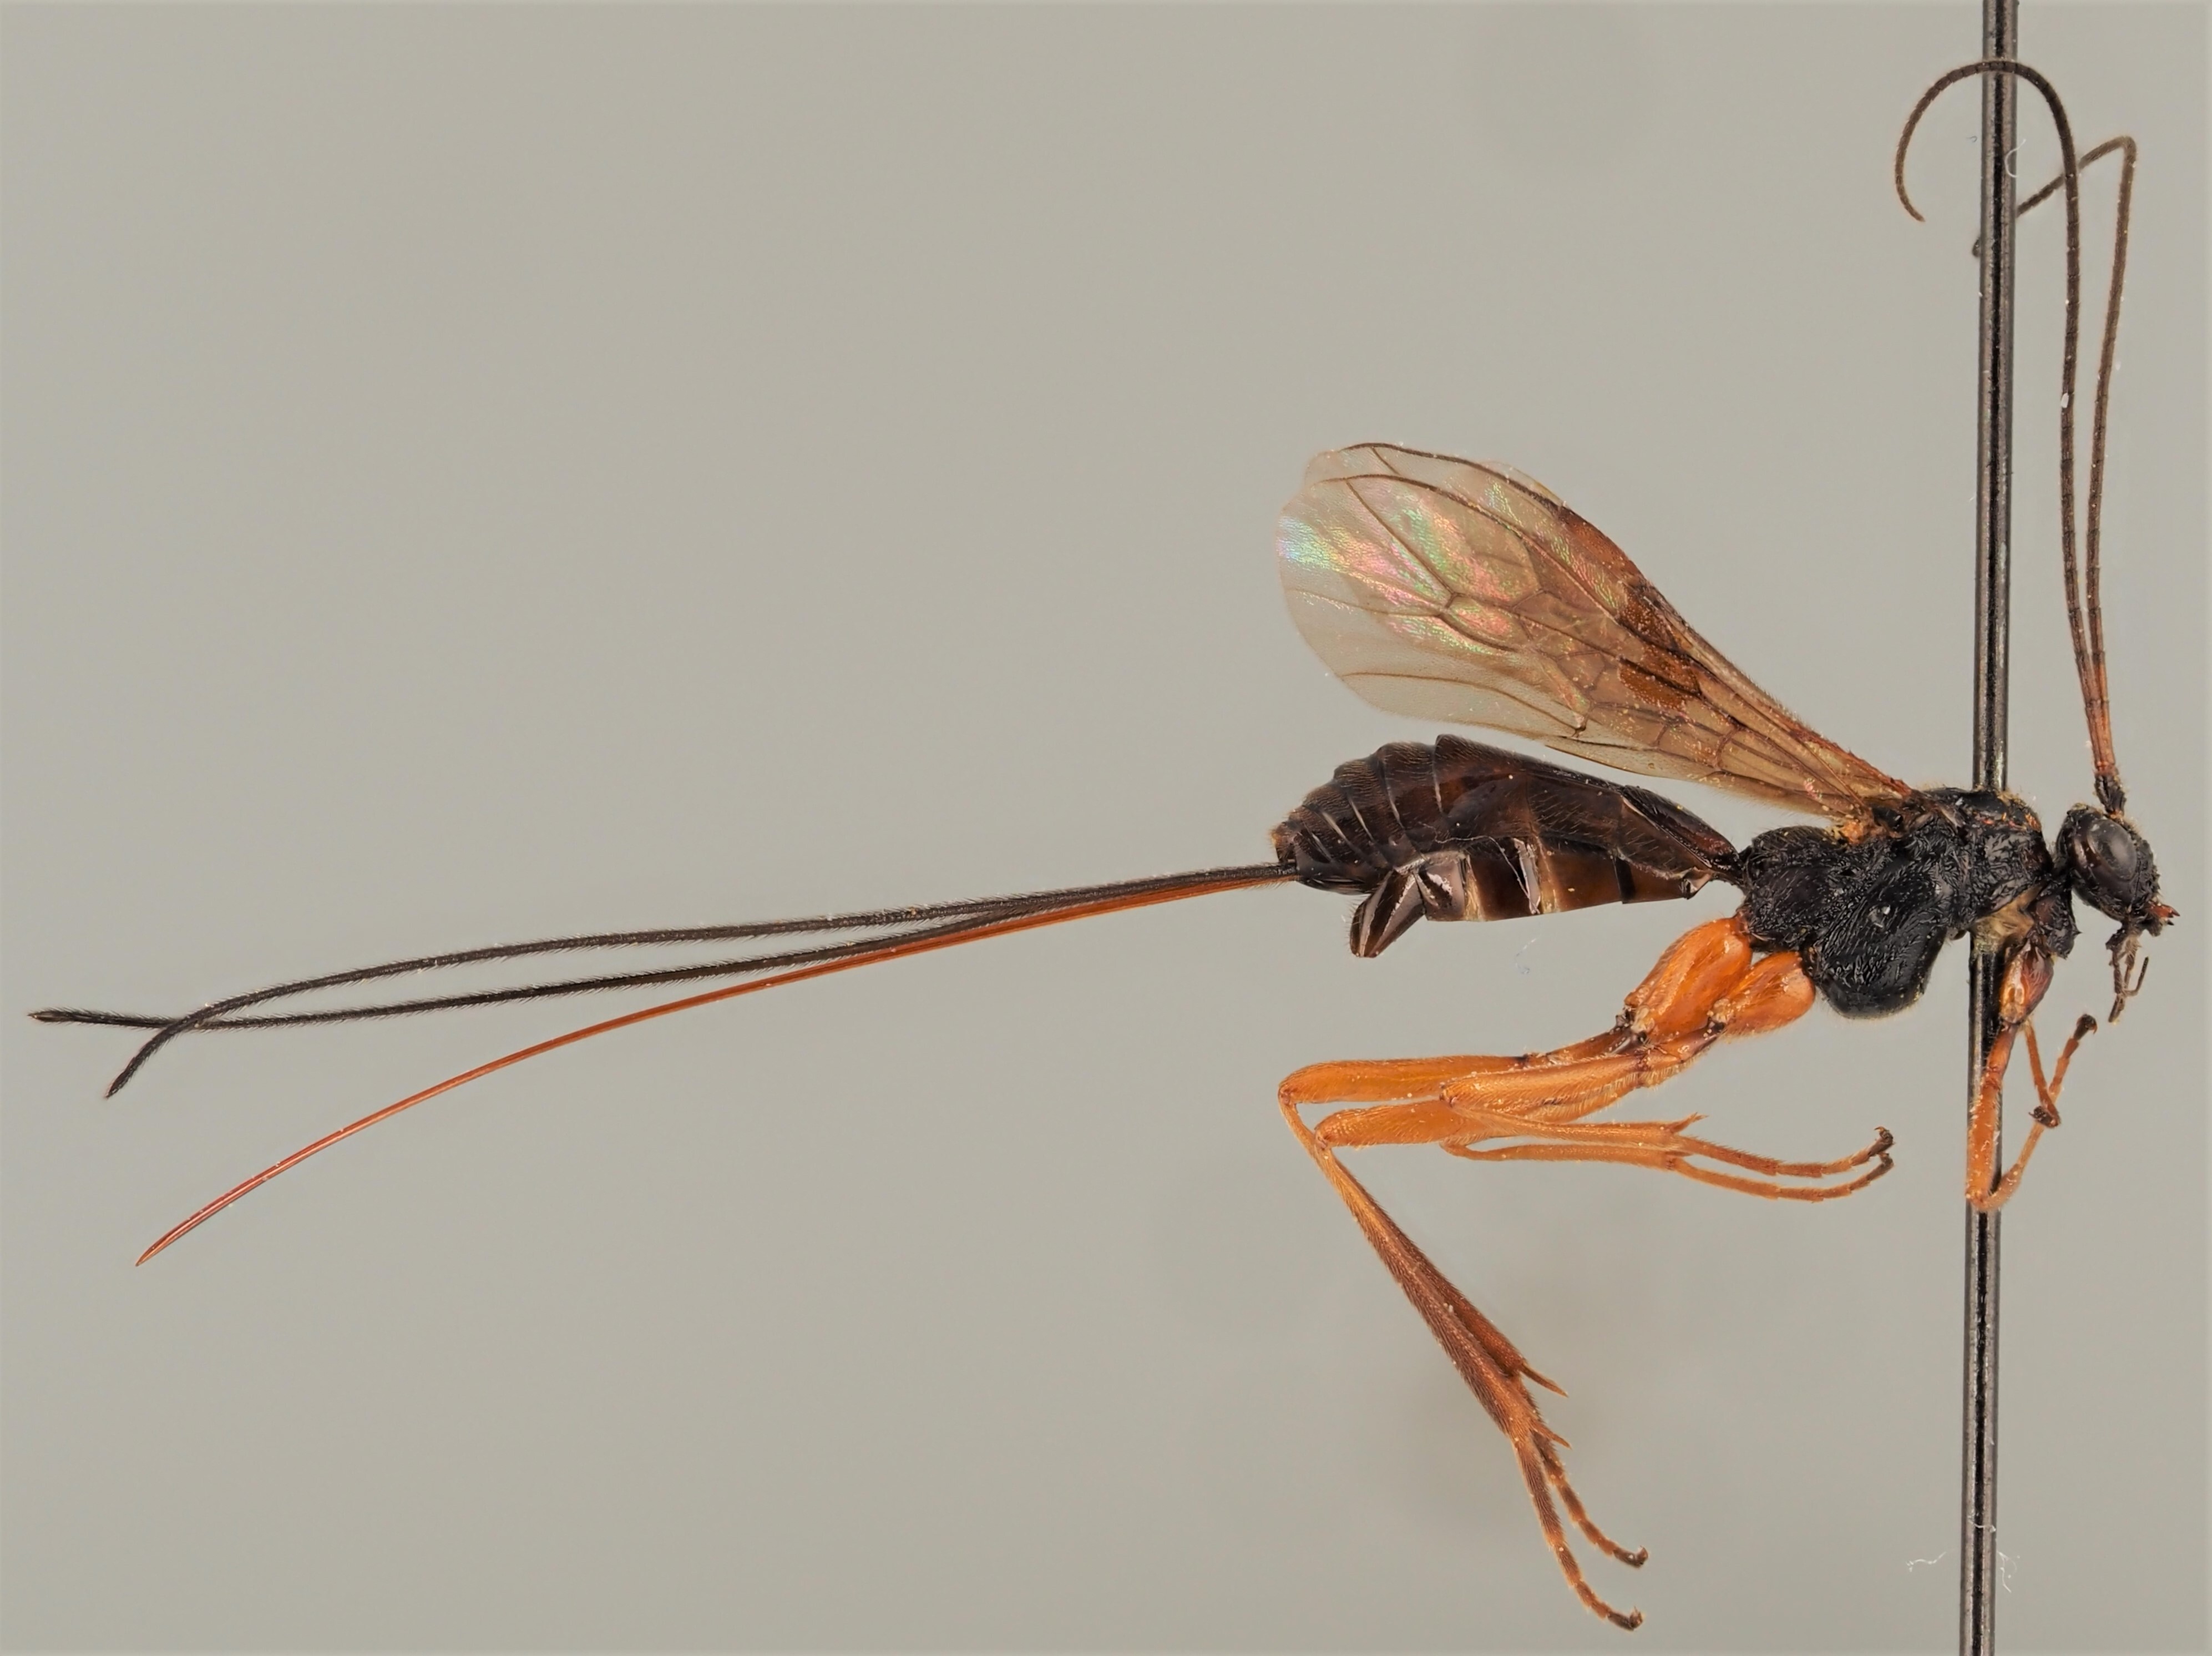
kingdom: Animalia
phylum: Arthropoda
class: Insecta
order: Hymenoptera
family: Braconidae
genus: Macrocentrus
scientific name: Macrocentrus nidulator
